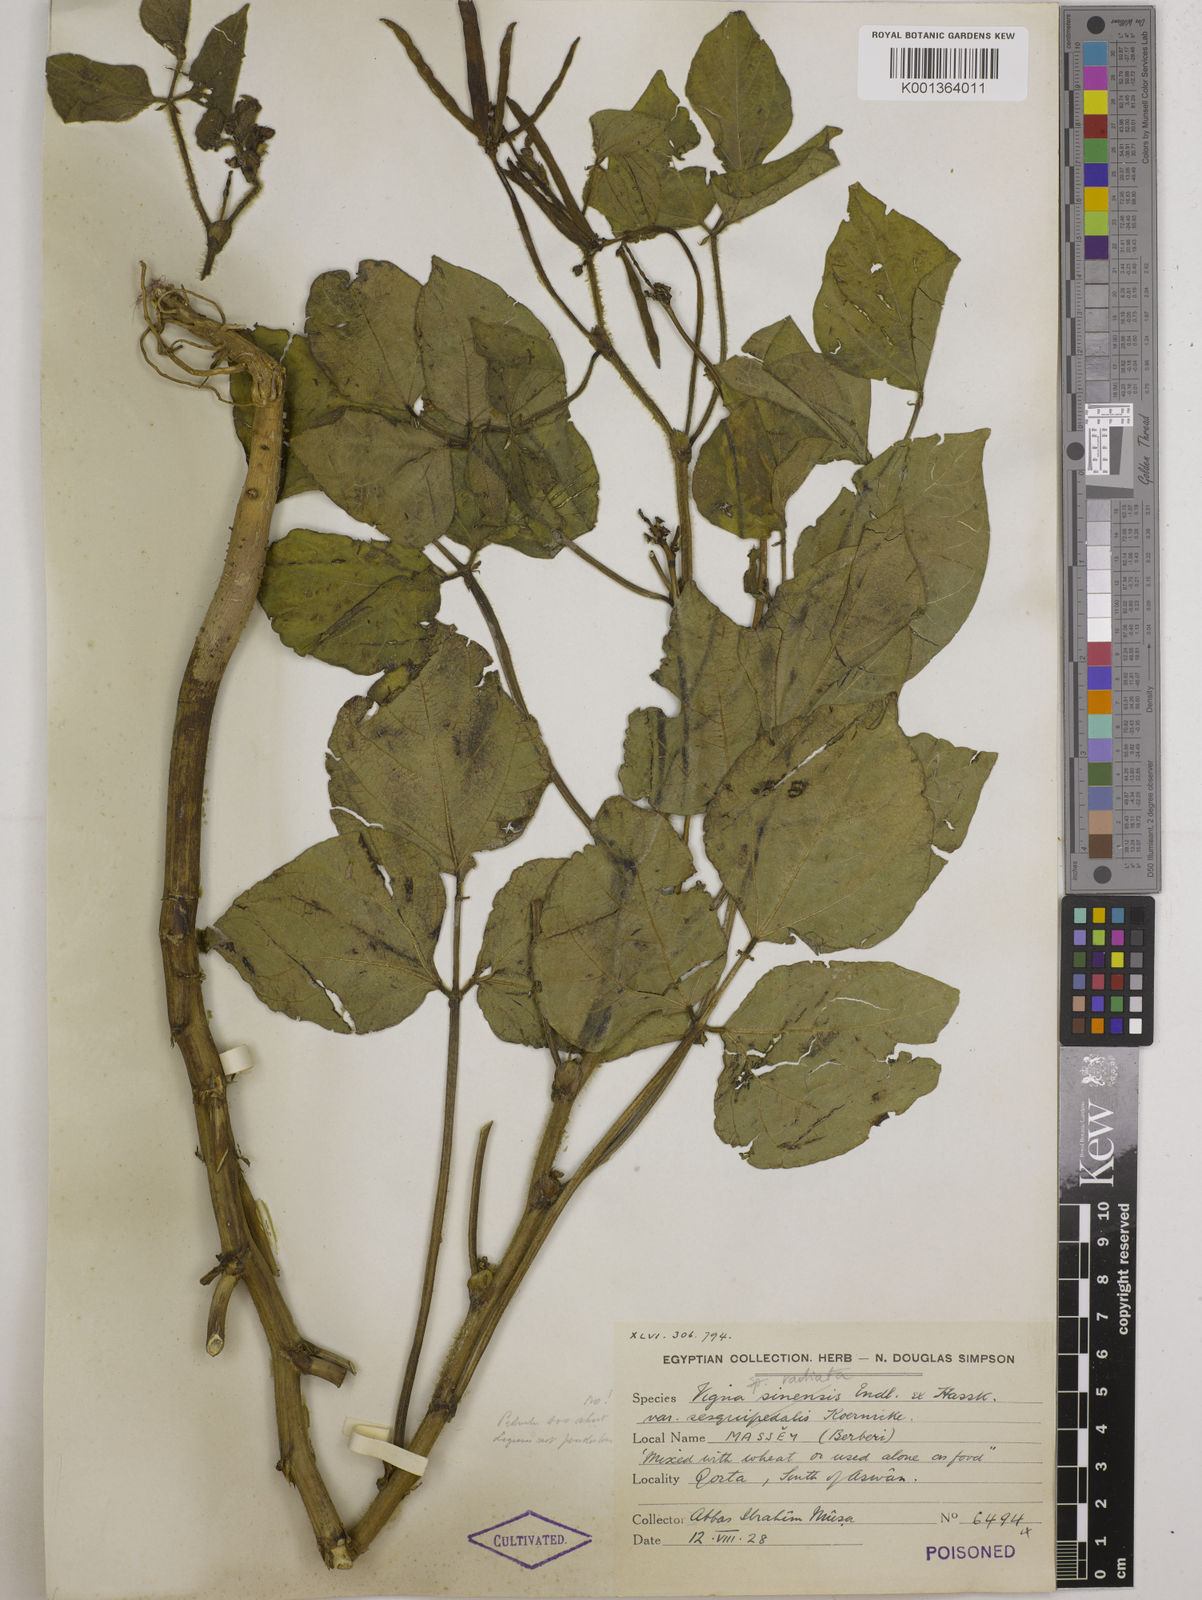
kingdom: Plantae
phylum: Tracheophyta
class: Magnoliopsida
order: Fabales
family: Fabaceae
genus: Vigna
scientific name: Vigna radiata
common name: Mung-bean
